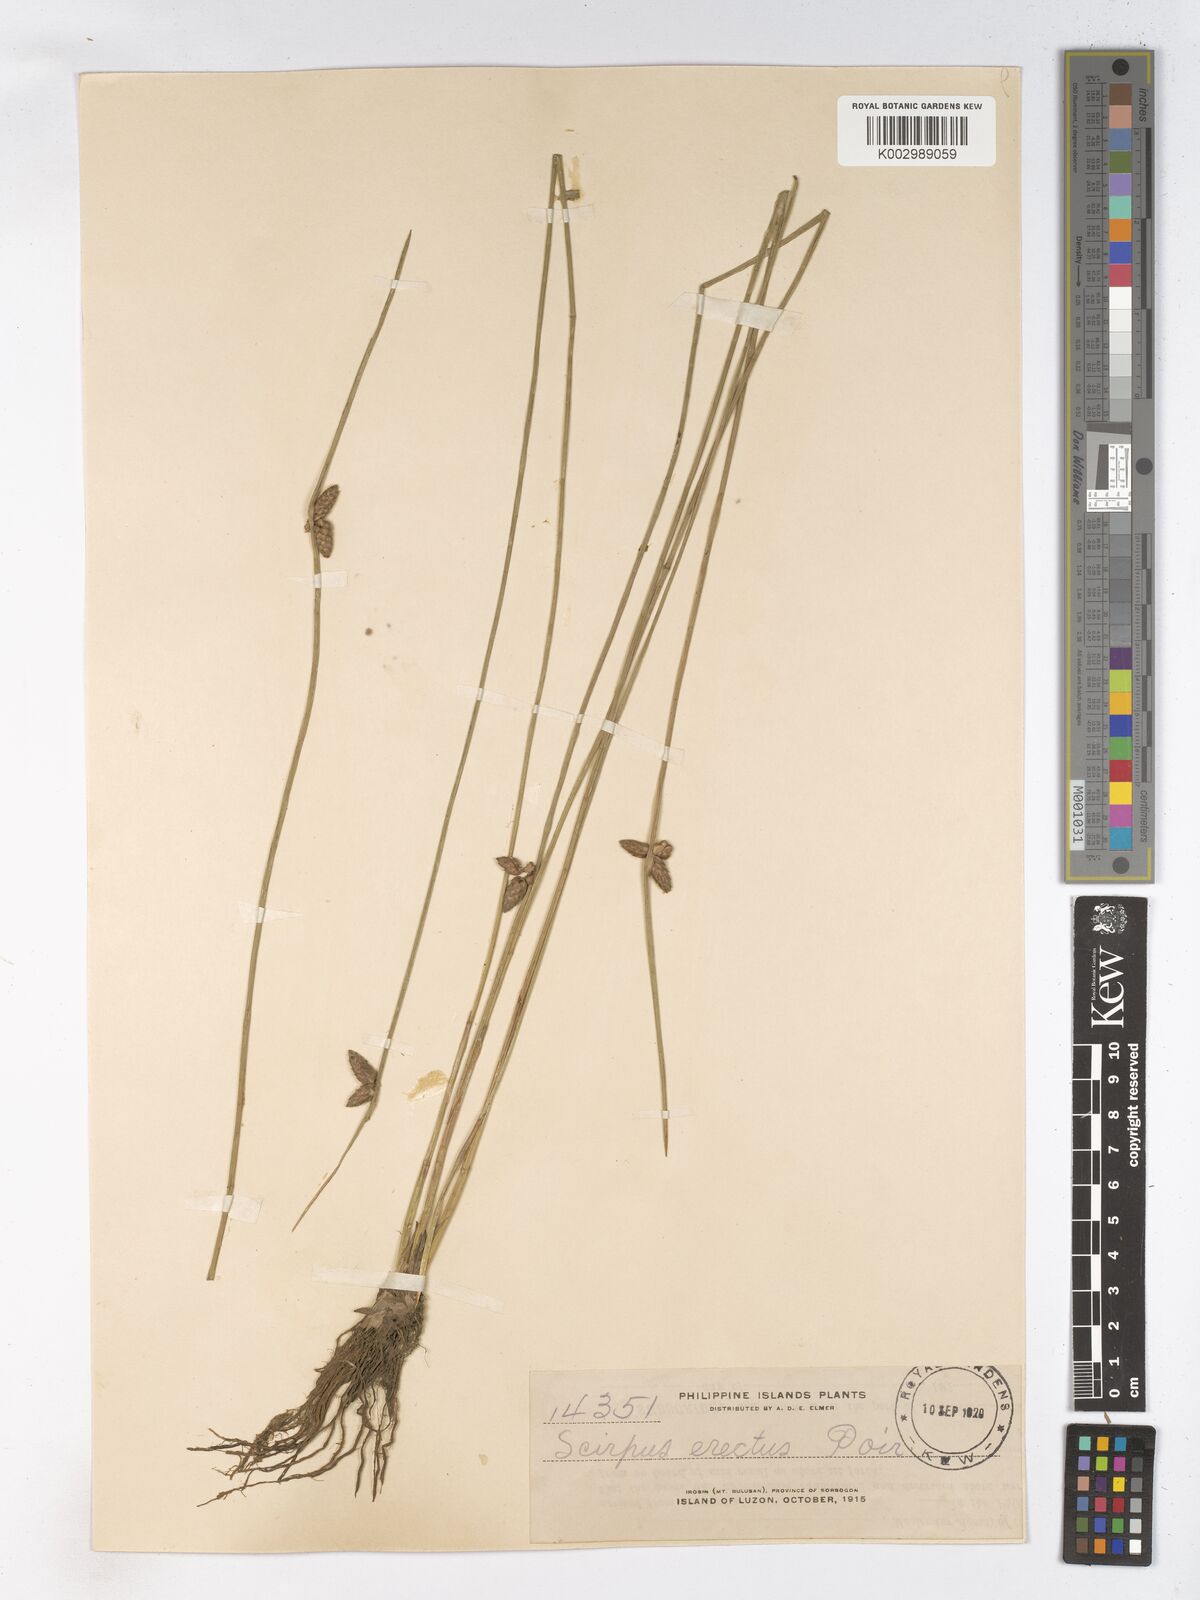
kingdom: Plantae
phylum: Tracheophyta
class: Liliopsida
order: Poales
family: Cyperaceae
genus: Schoenoplectiella
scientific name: Schoenoplectiella juncoides
